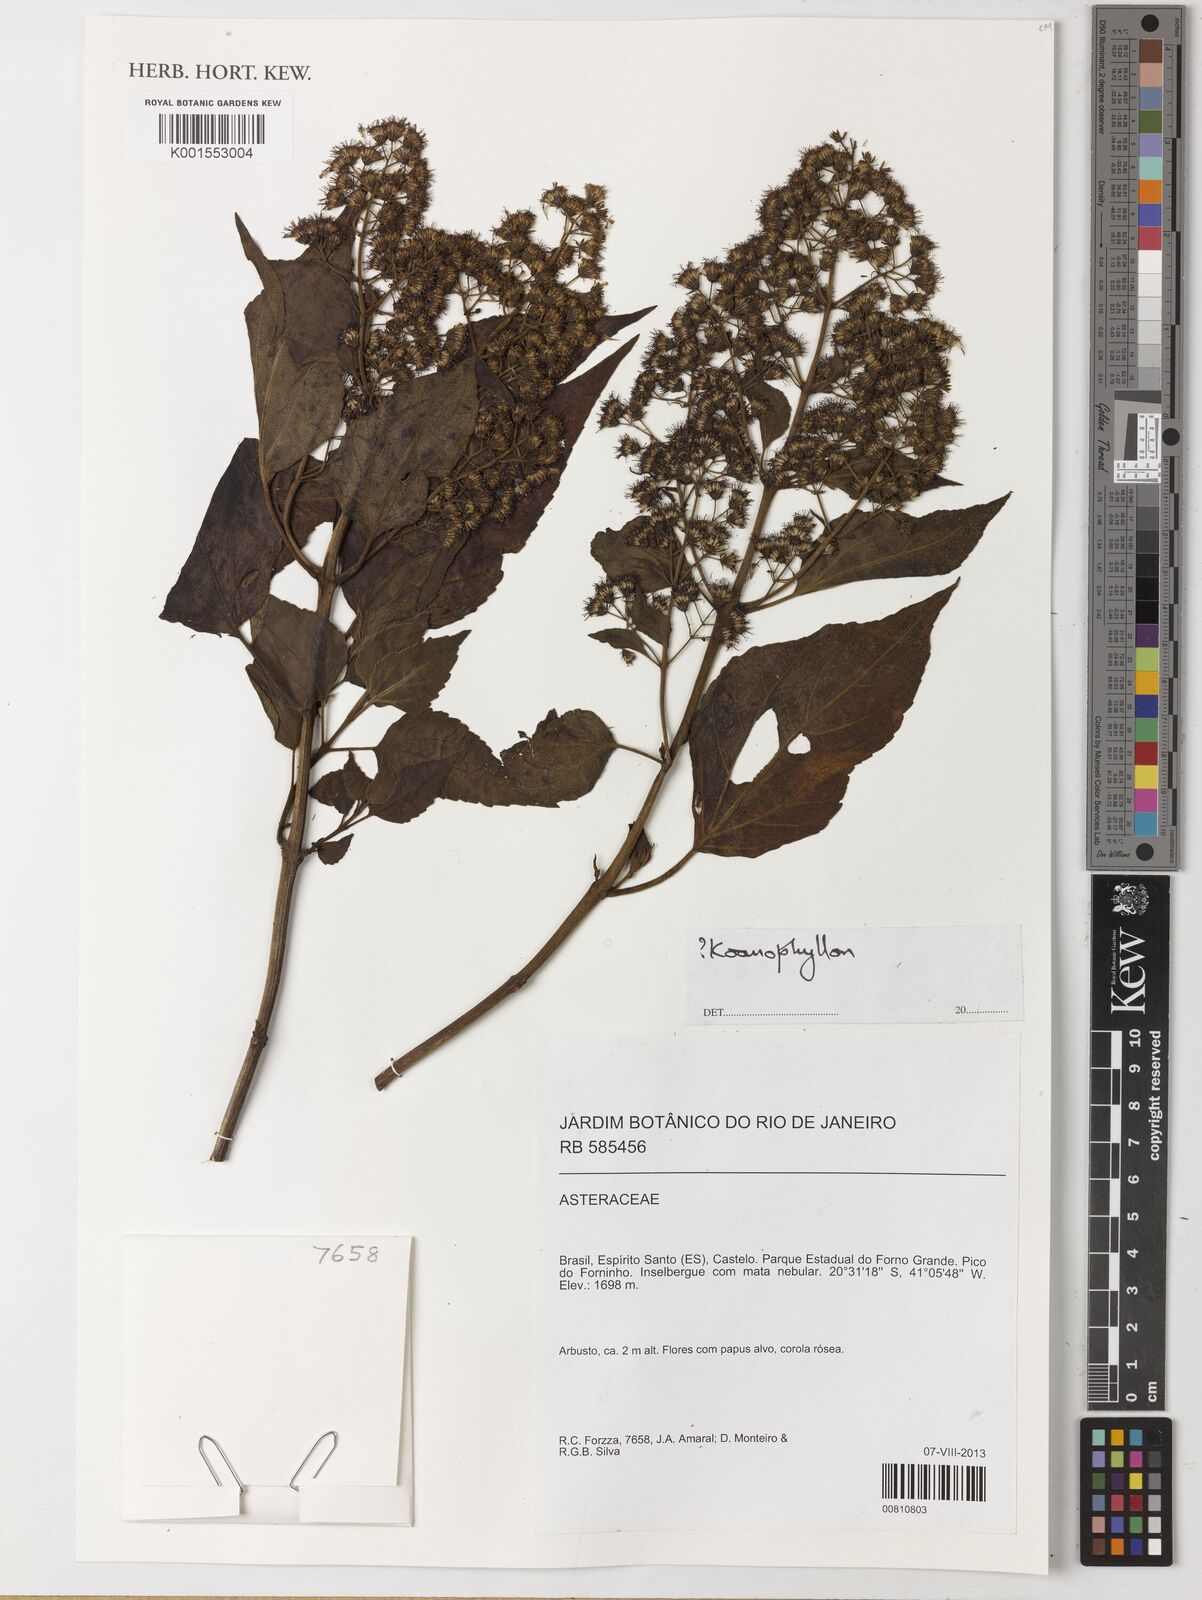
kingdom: Plantae
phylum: Tracheophyta
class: Magnoliopsida
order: Asterales
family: Asteraceae
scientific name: Asteraceae
